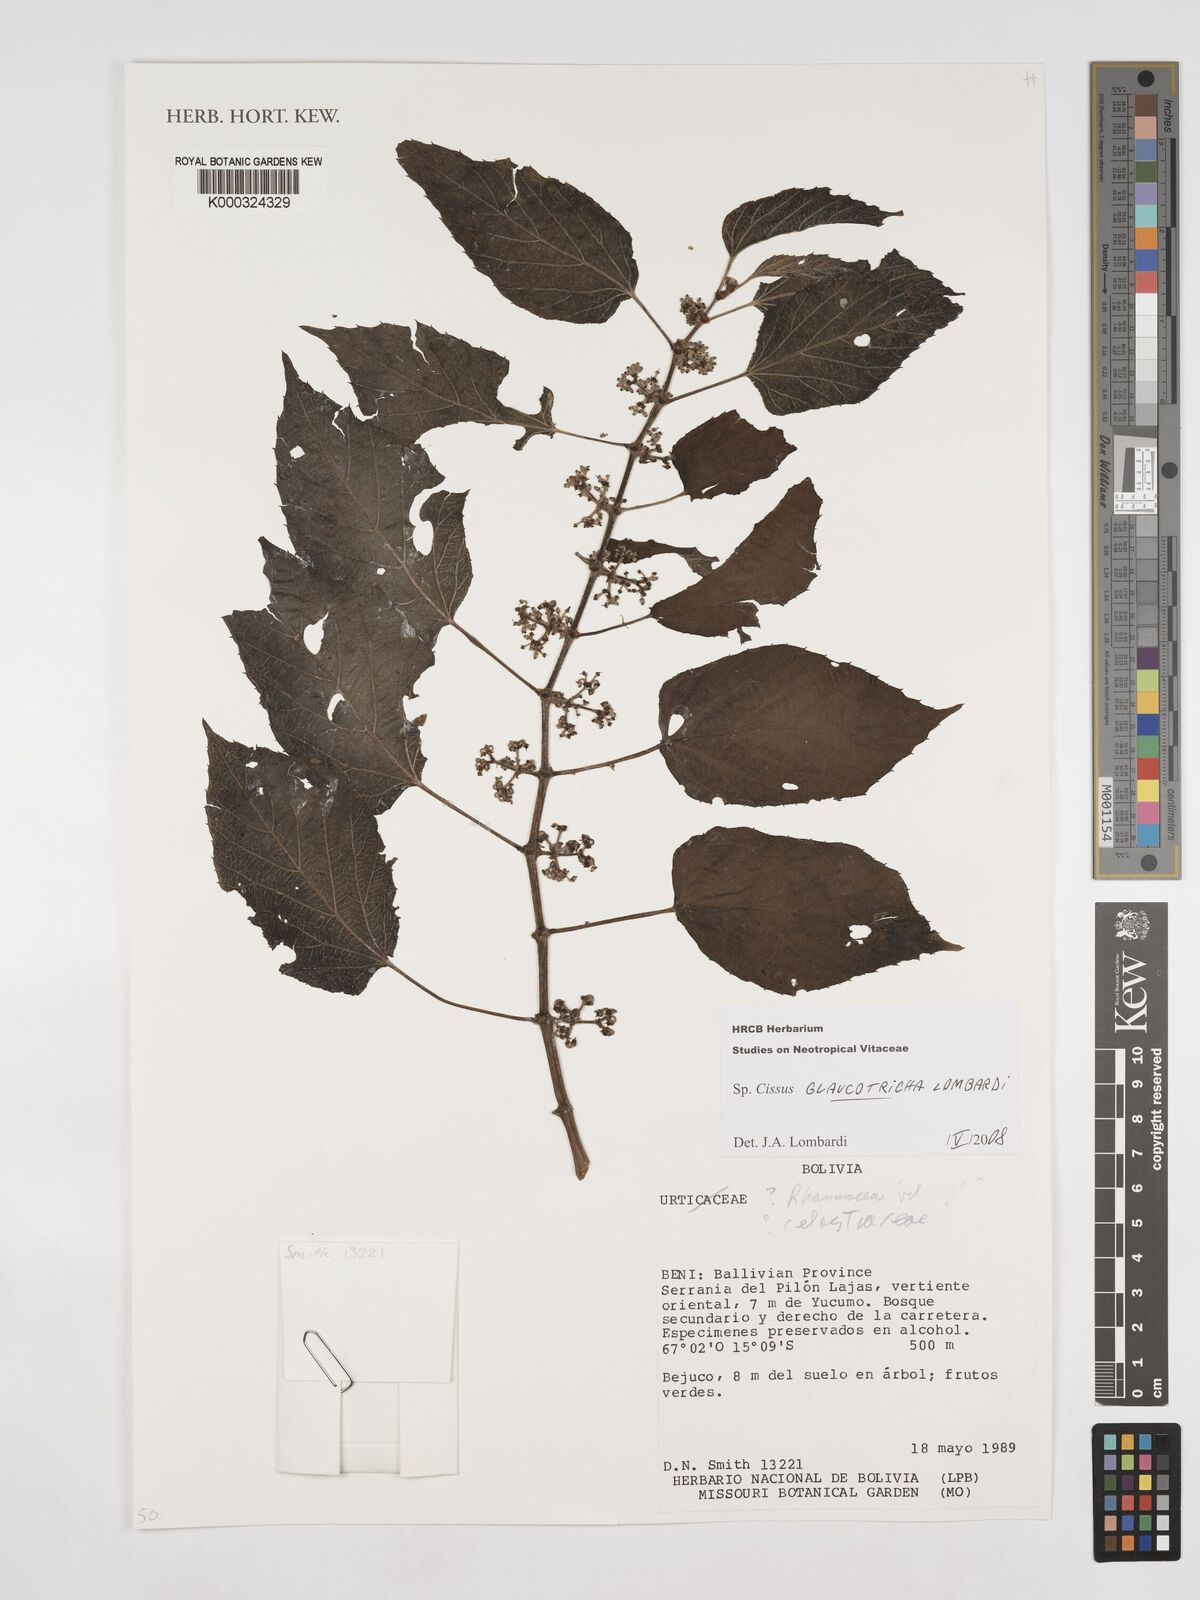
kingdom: Plantae
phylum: Tracheophyta
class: Magnoliopsida
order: Vitales
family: Vitaceae
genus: Cissus
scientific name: Cissus glaucotricha
